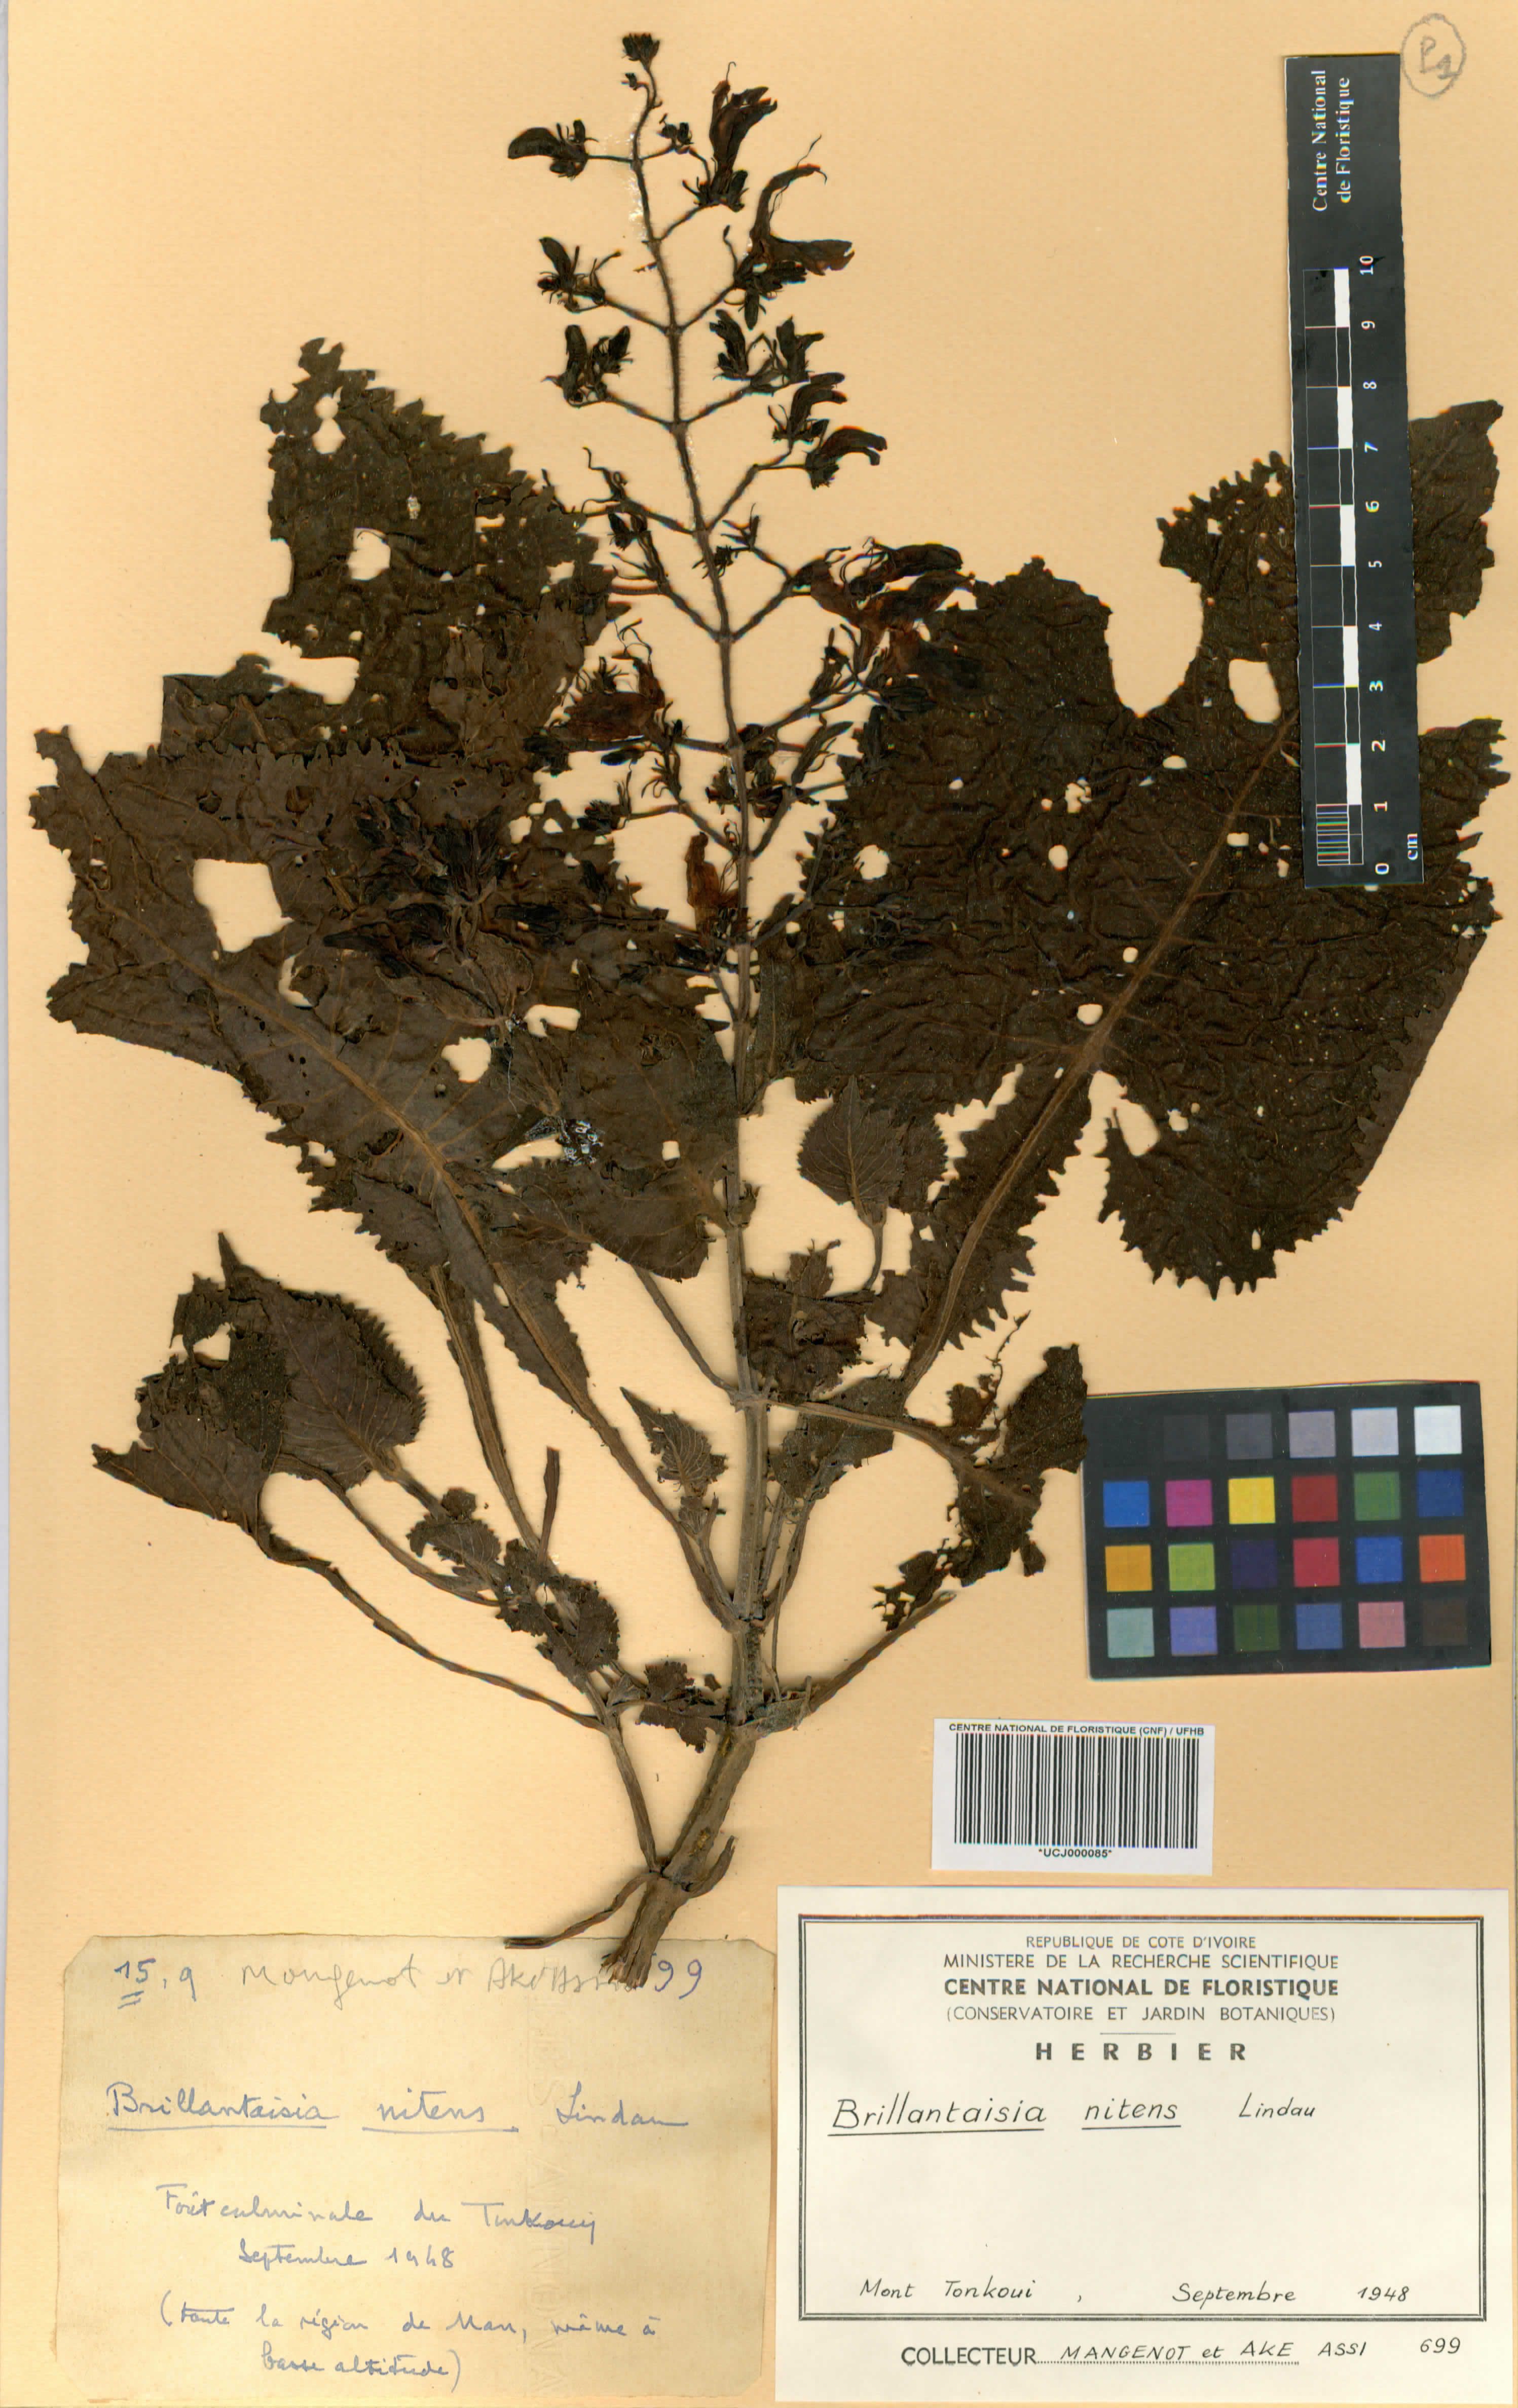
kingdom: Plantae
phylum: Tracheophyta
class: Magnoliopsida
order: Lamiales
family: Acanthaceae
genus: Brillantaisia
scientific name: Brillantaisia owariensis
